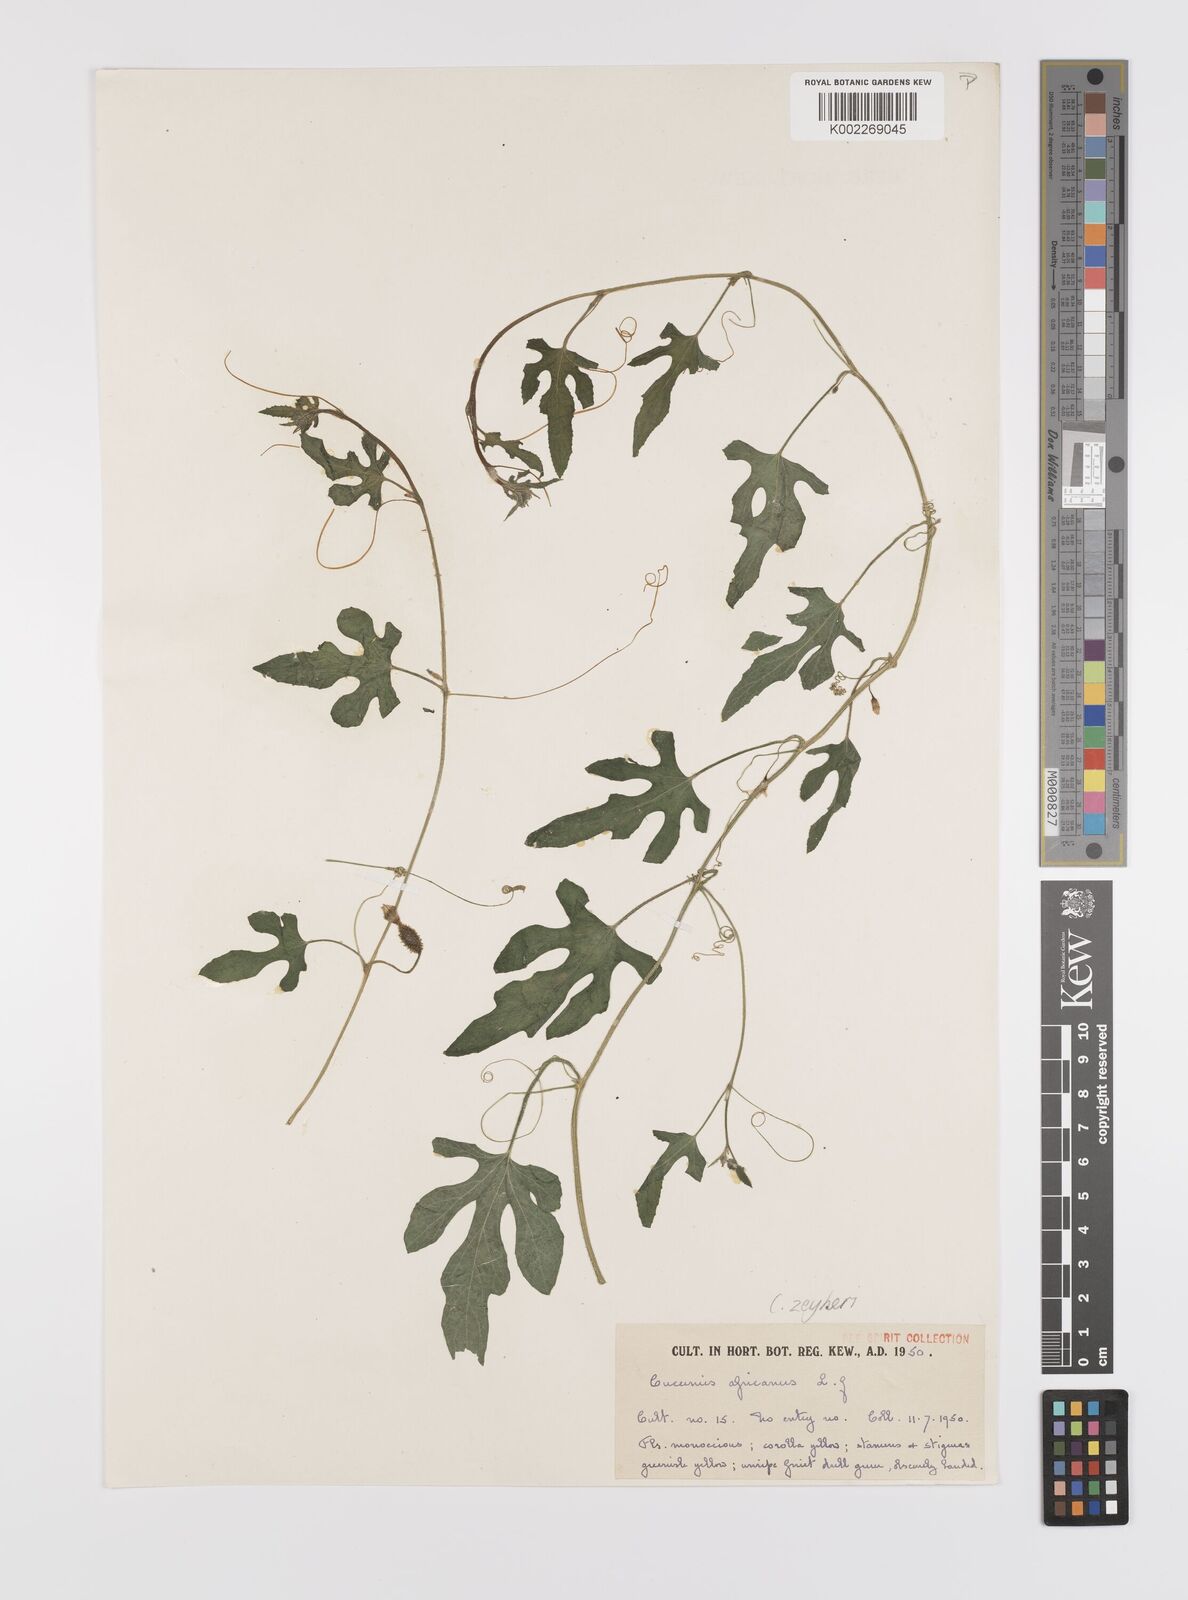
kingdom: Plantae
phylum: Tracheophyta
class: Magnoliopsida
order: Cucurbitales
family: Cucurbitaceae
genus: Cucumis
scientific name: Cucumis sativus
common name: Cucumber
